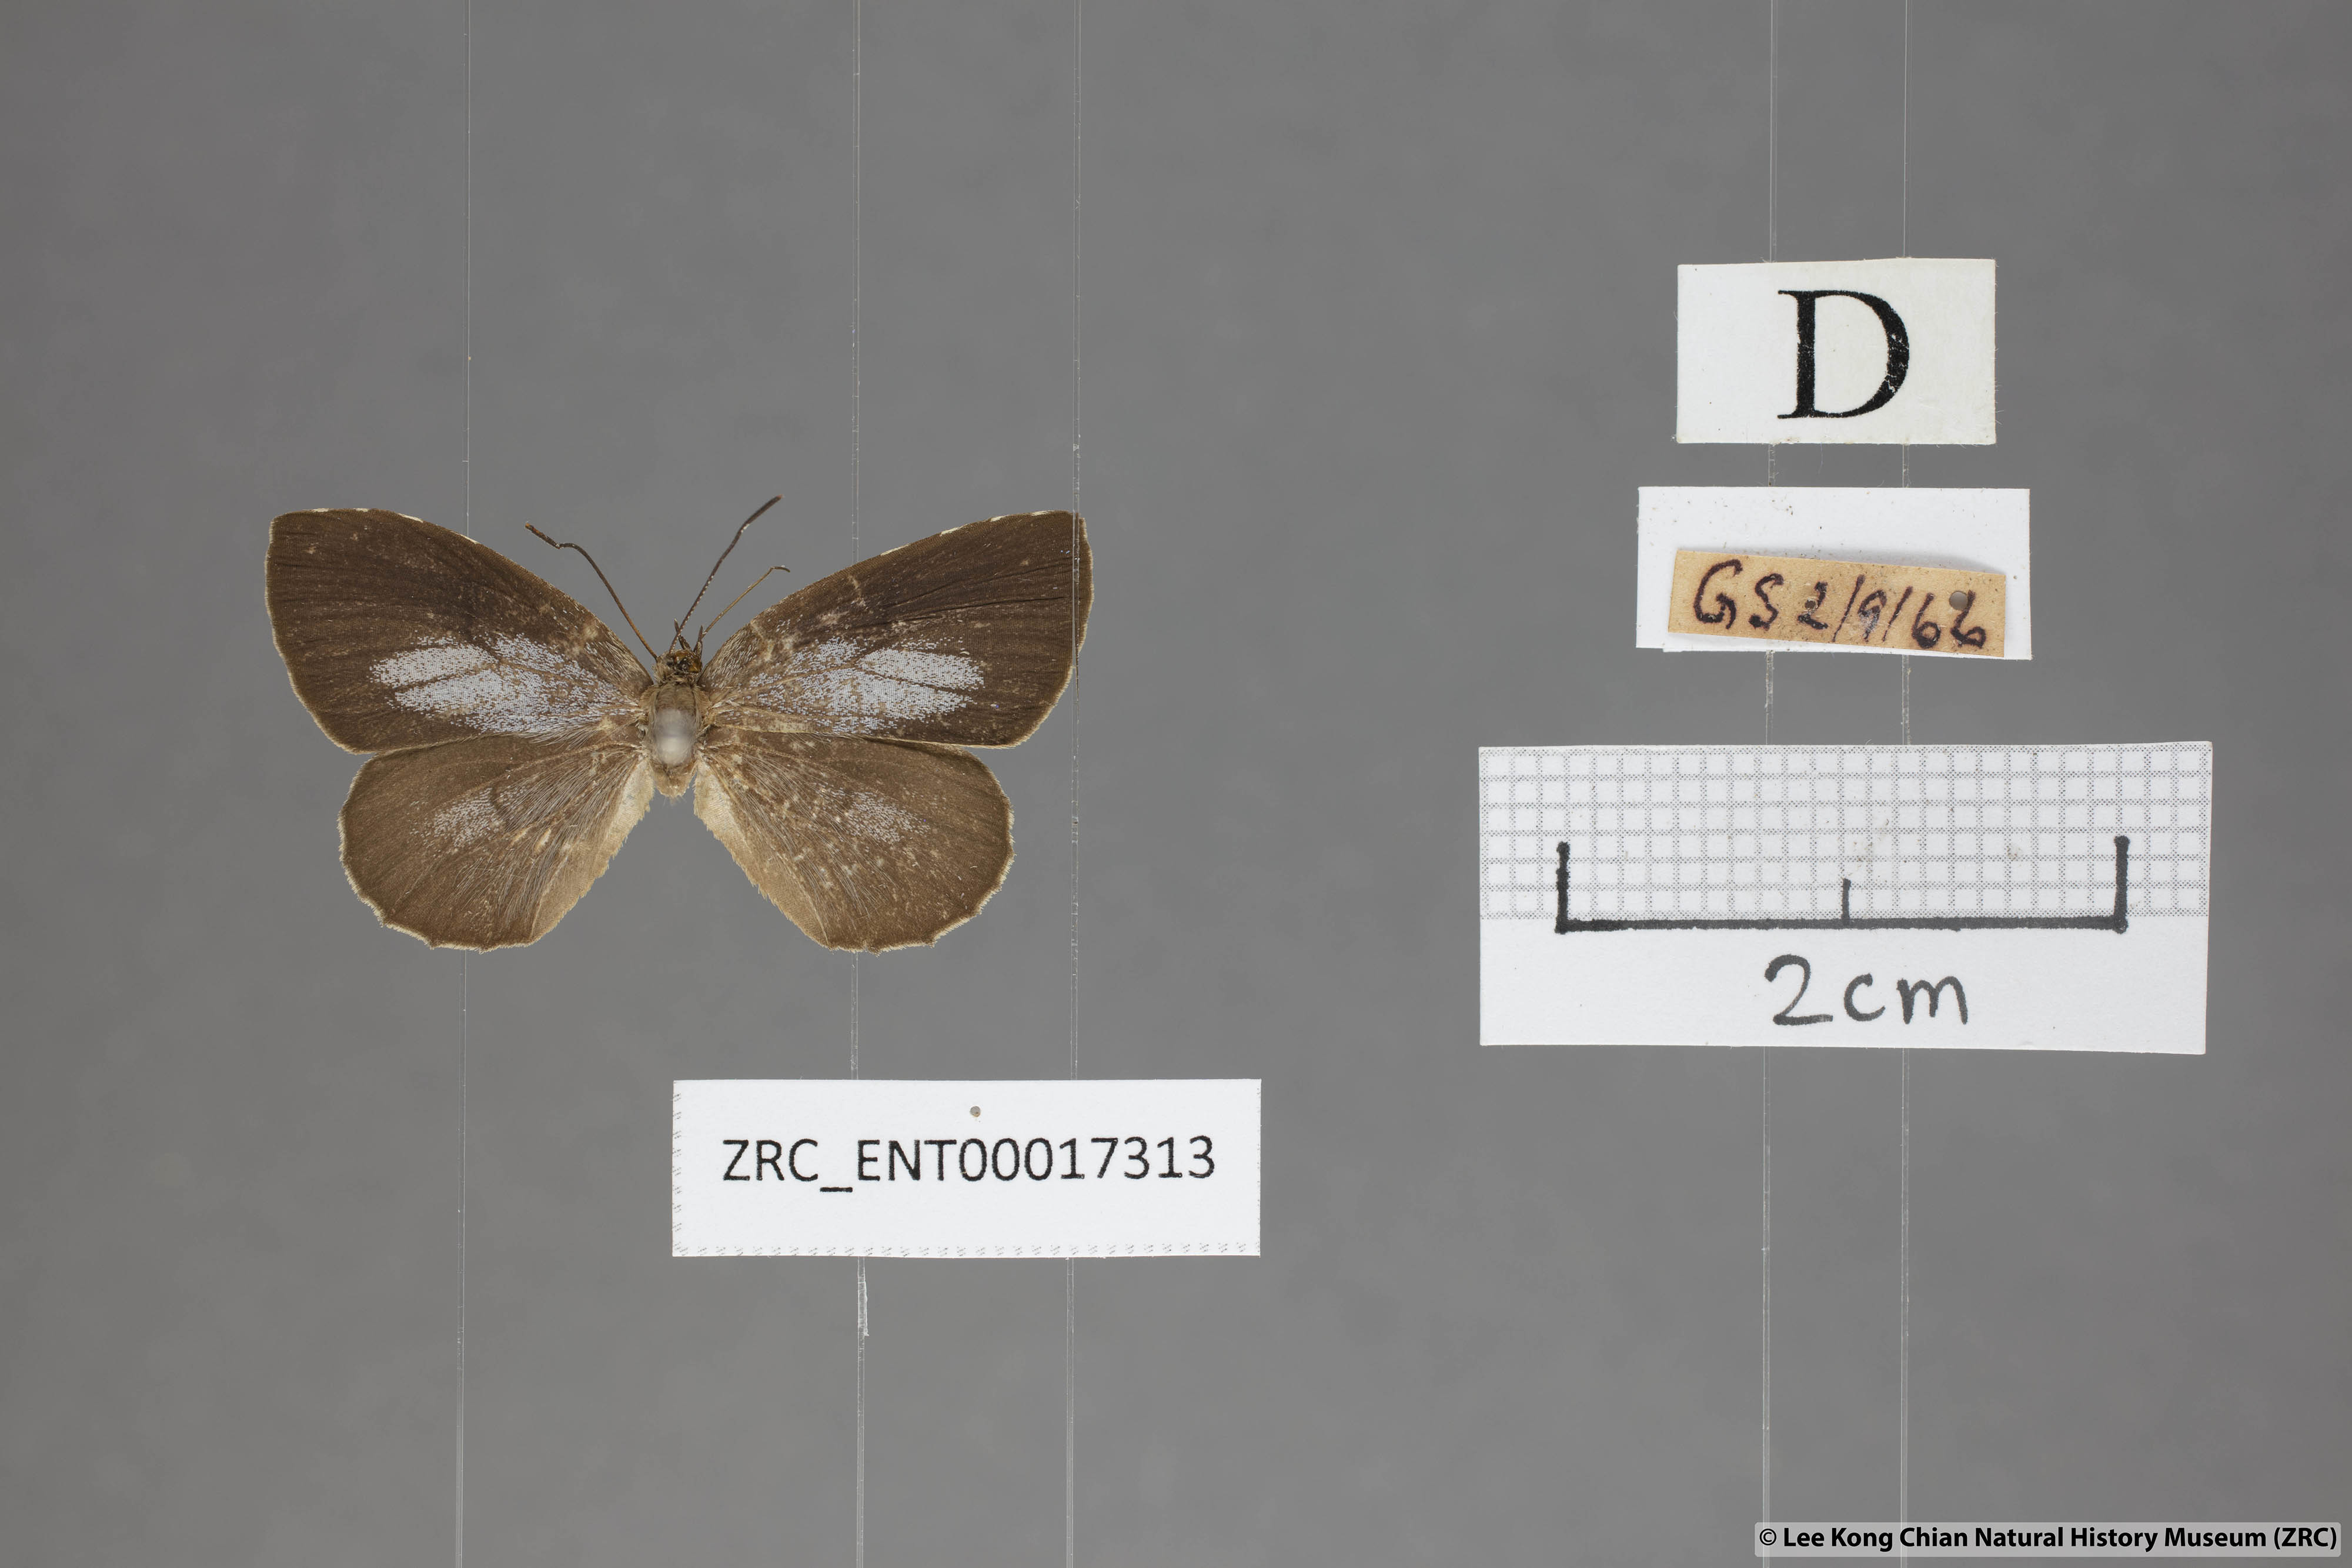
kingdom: Animalia
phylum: Arthropoda
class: Insecta
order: Lepidoptera
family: Lycaenidae
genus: Allotinus
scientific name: Allotinus subviolaceus
